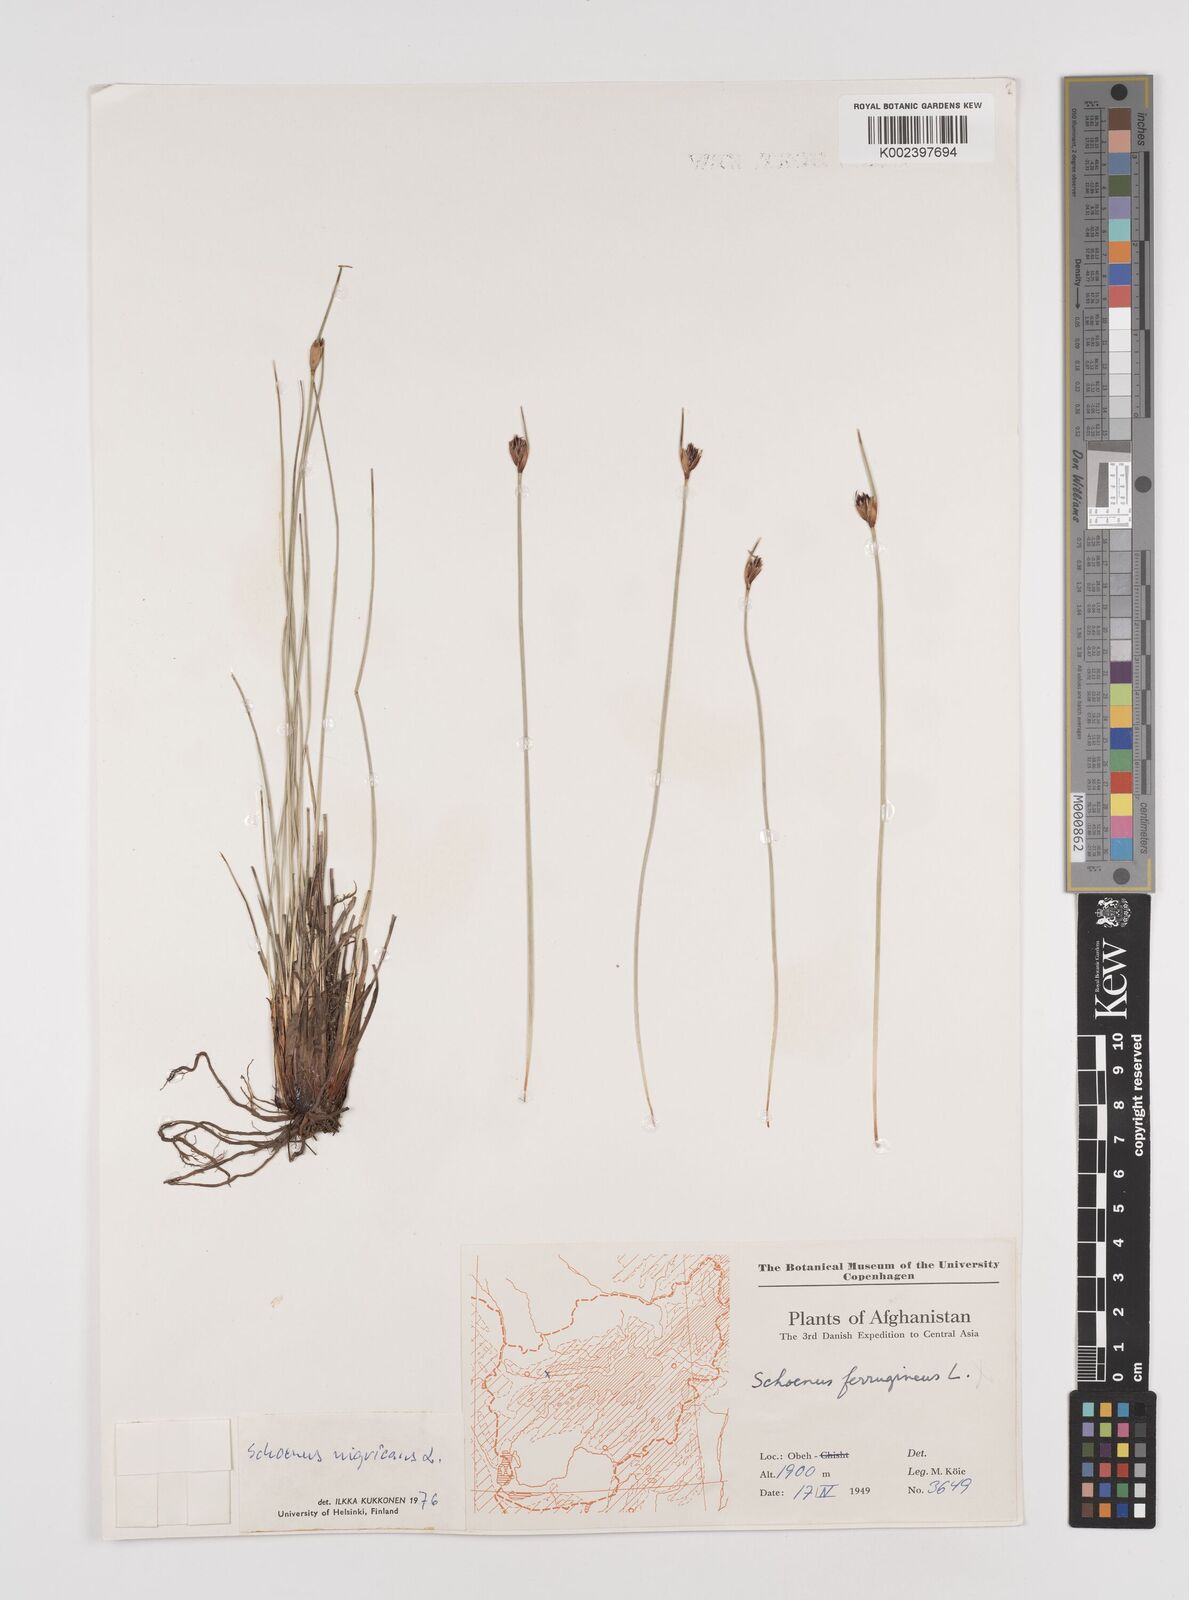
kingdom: Plantae
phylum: Tracheophyta
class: Liliopsida
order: Poales
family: Cyperaceae
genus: Schoenus
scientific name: Schoenus nigricans
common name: Black bog-rush
